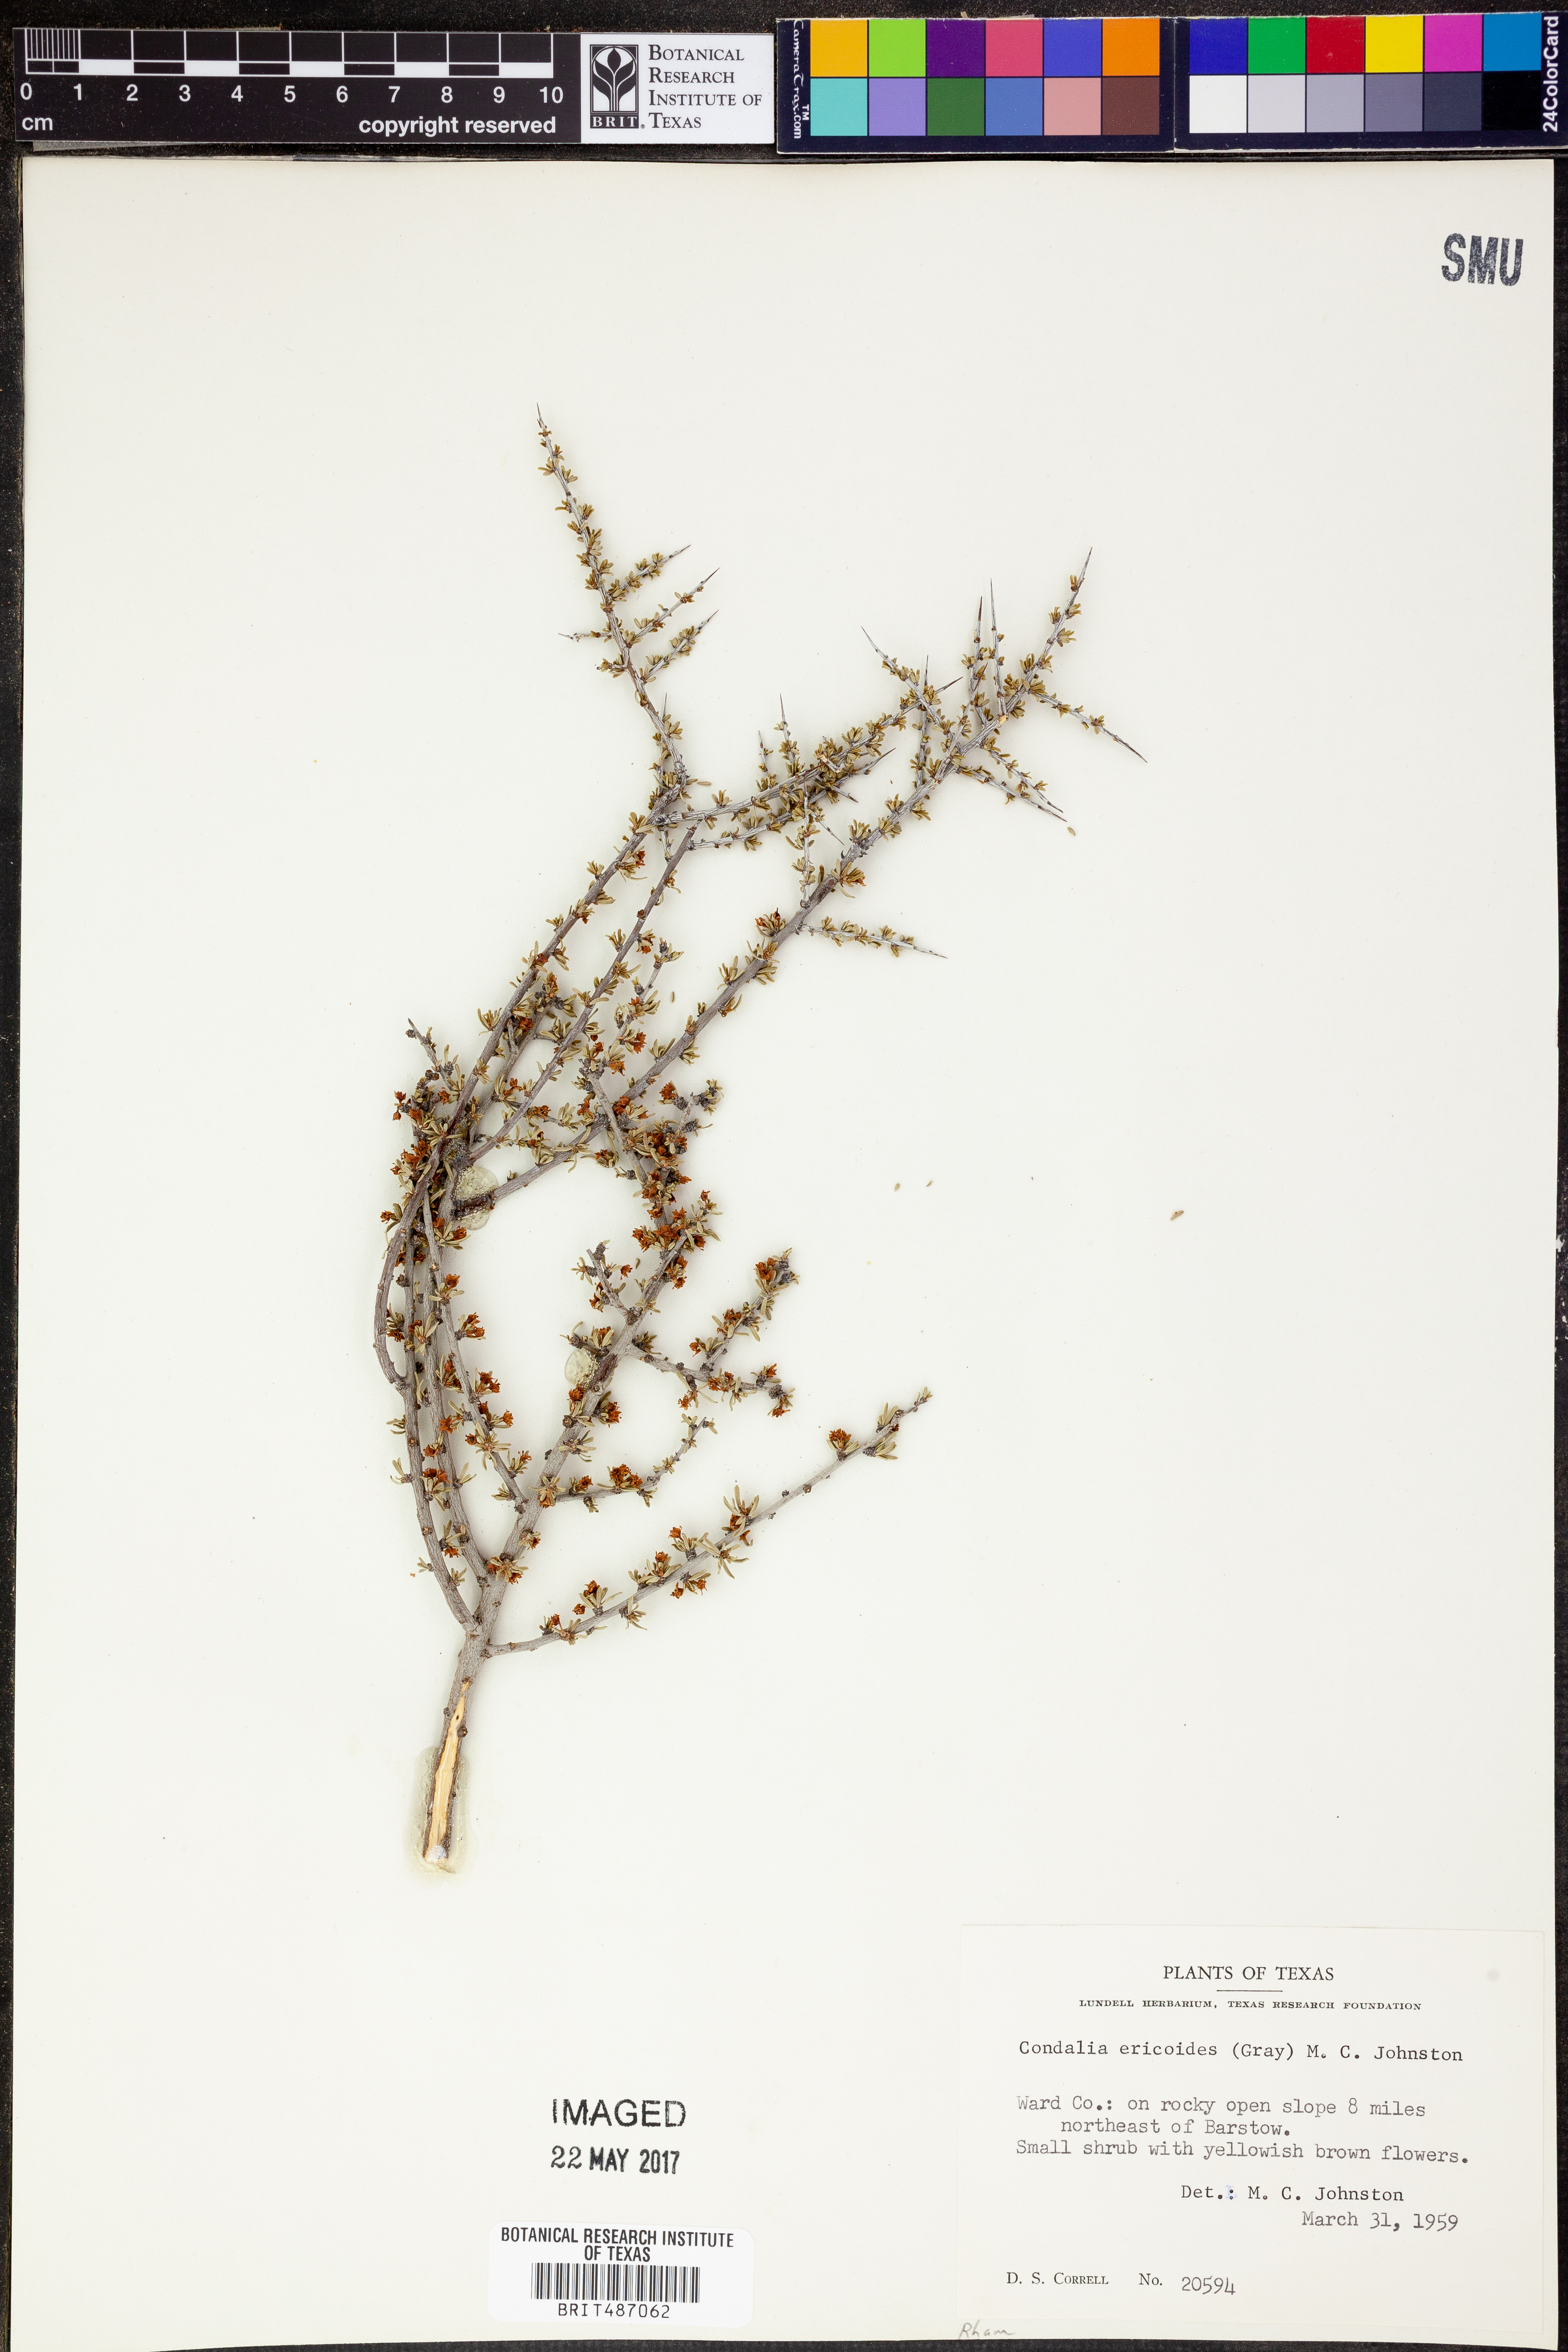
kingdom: Plantae
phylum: Tracheophyta
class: Magnoliopsida
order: Rosales
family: Rhamnaceae
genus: Condalia
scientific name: Condalia ericoides
